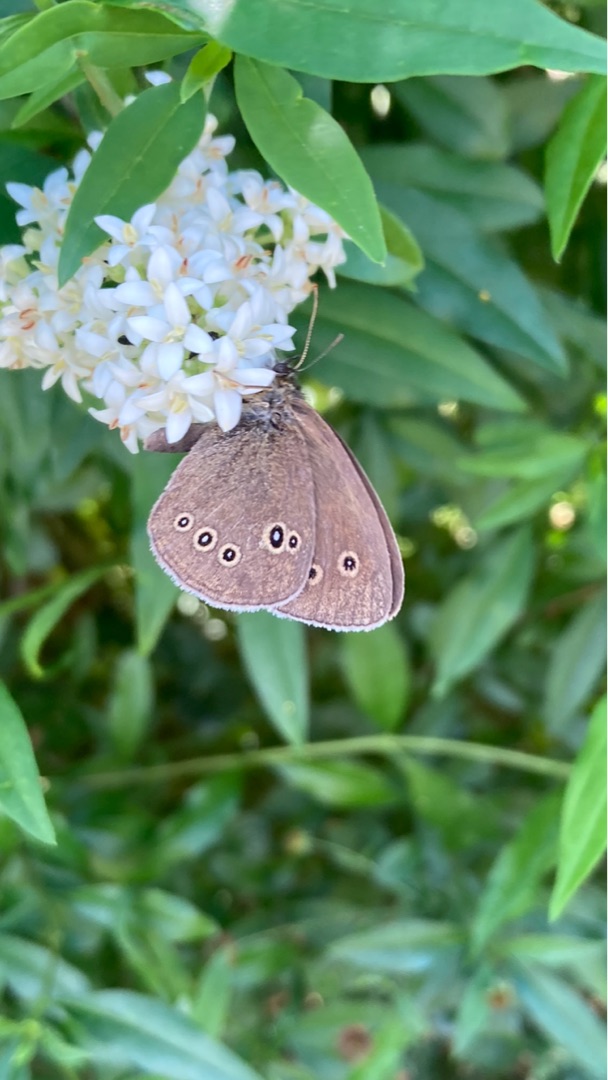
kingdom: Animalia
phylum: Arthropoda
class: Insecta
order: Lepidoptera
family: Nymphalidae
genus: Aphantopus
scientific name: Aphantopus hyperantus
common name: Engrandøje
